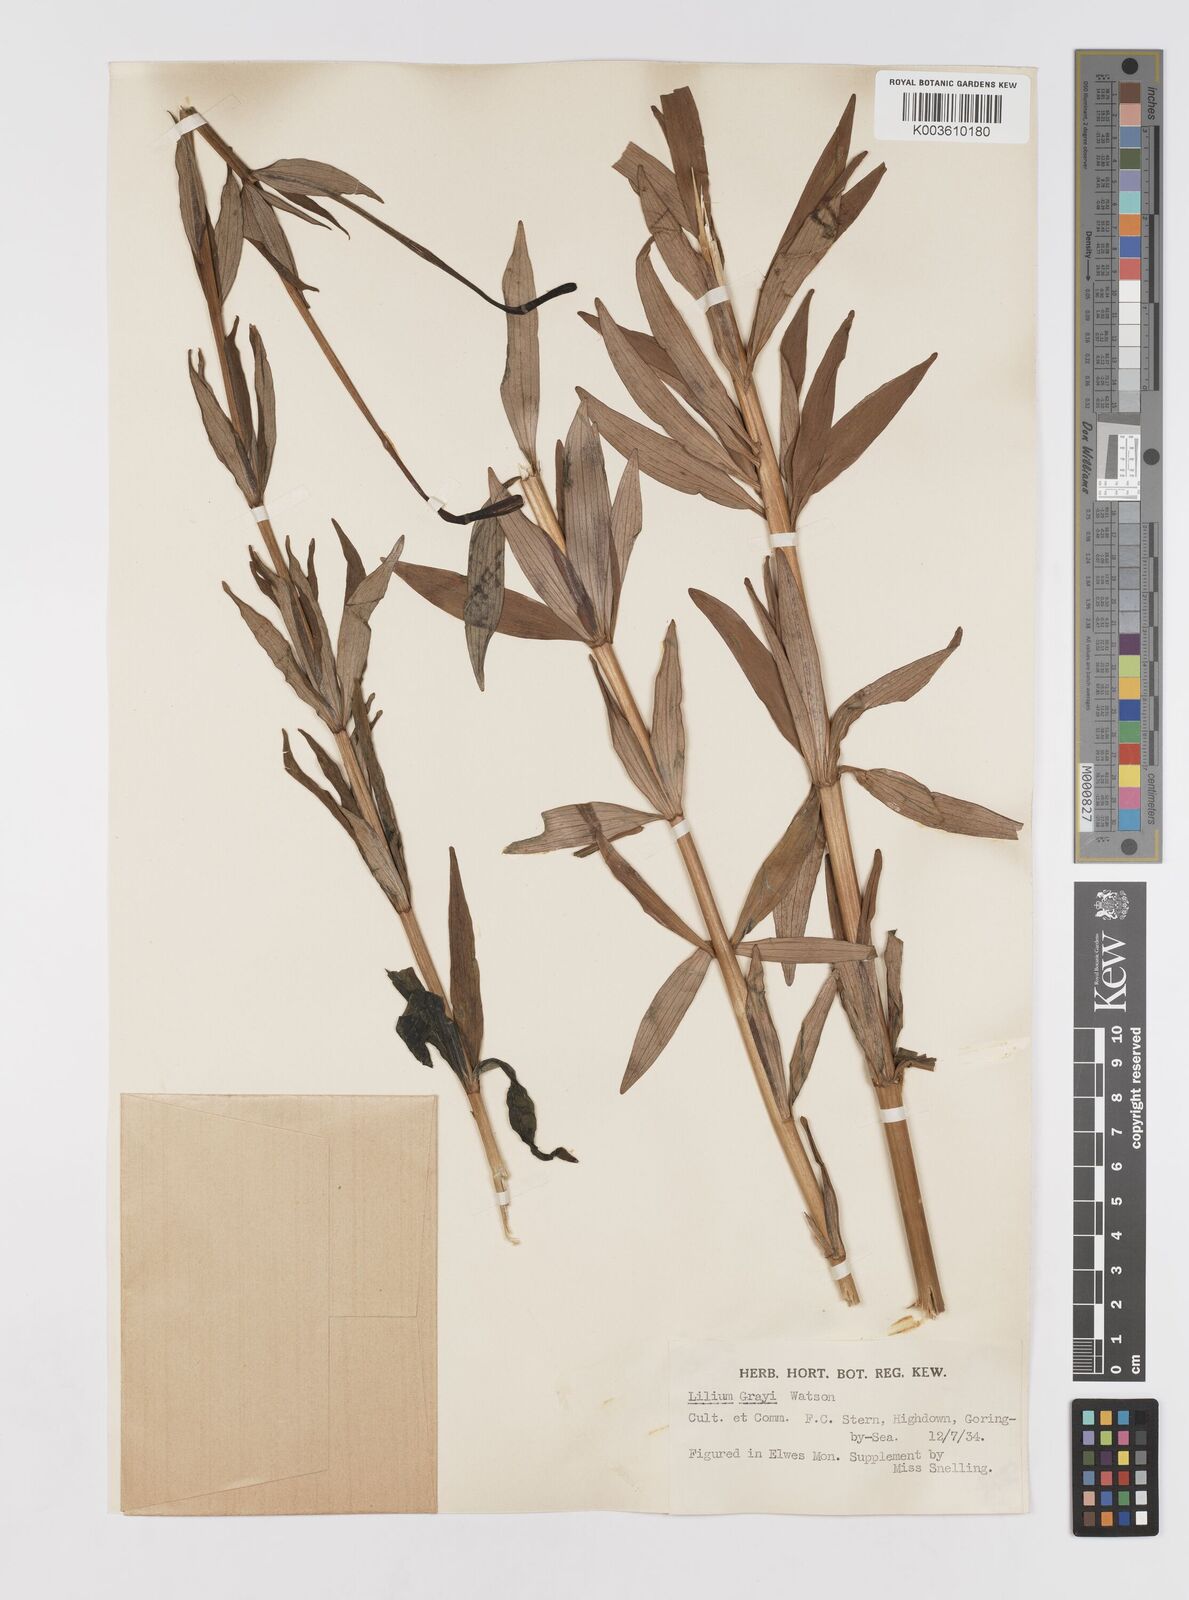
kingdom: Plantae
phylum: Tracheophyta
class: Liliopsida
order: Liliales
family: Liliaceae
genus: Lilium
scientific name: Lilium grayi
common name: Gray's lily
